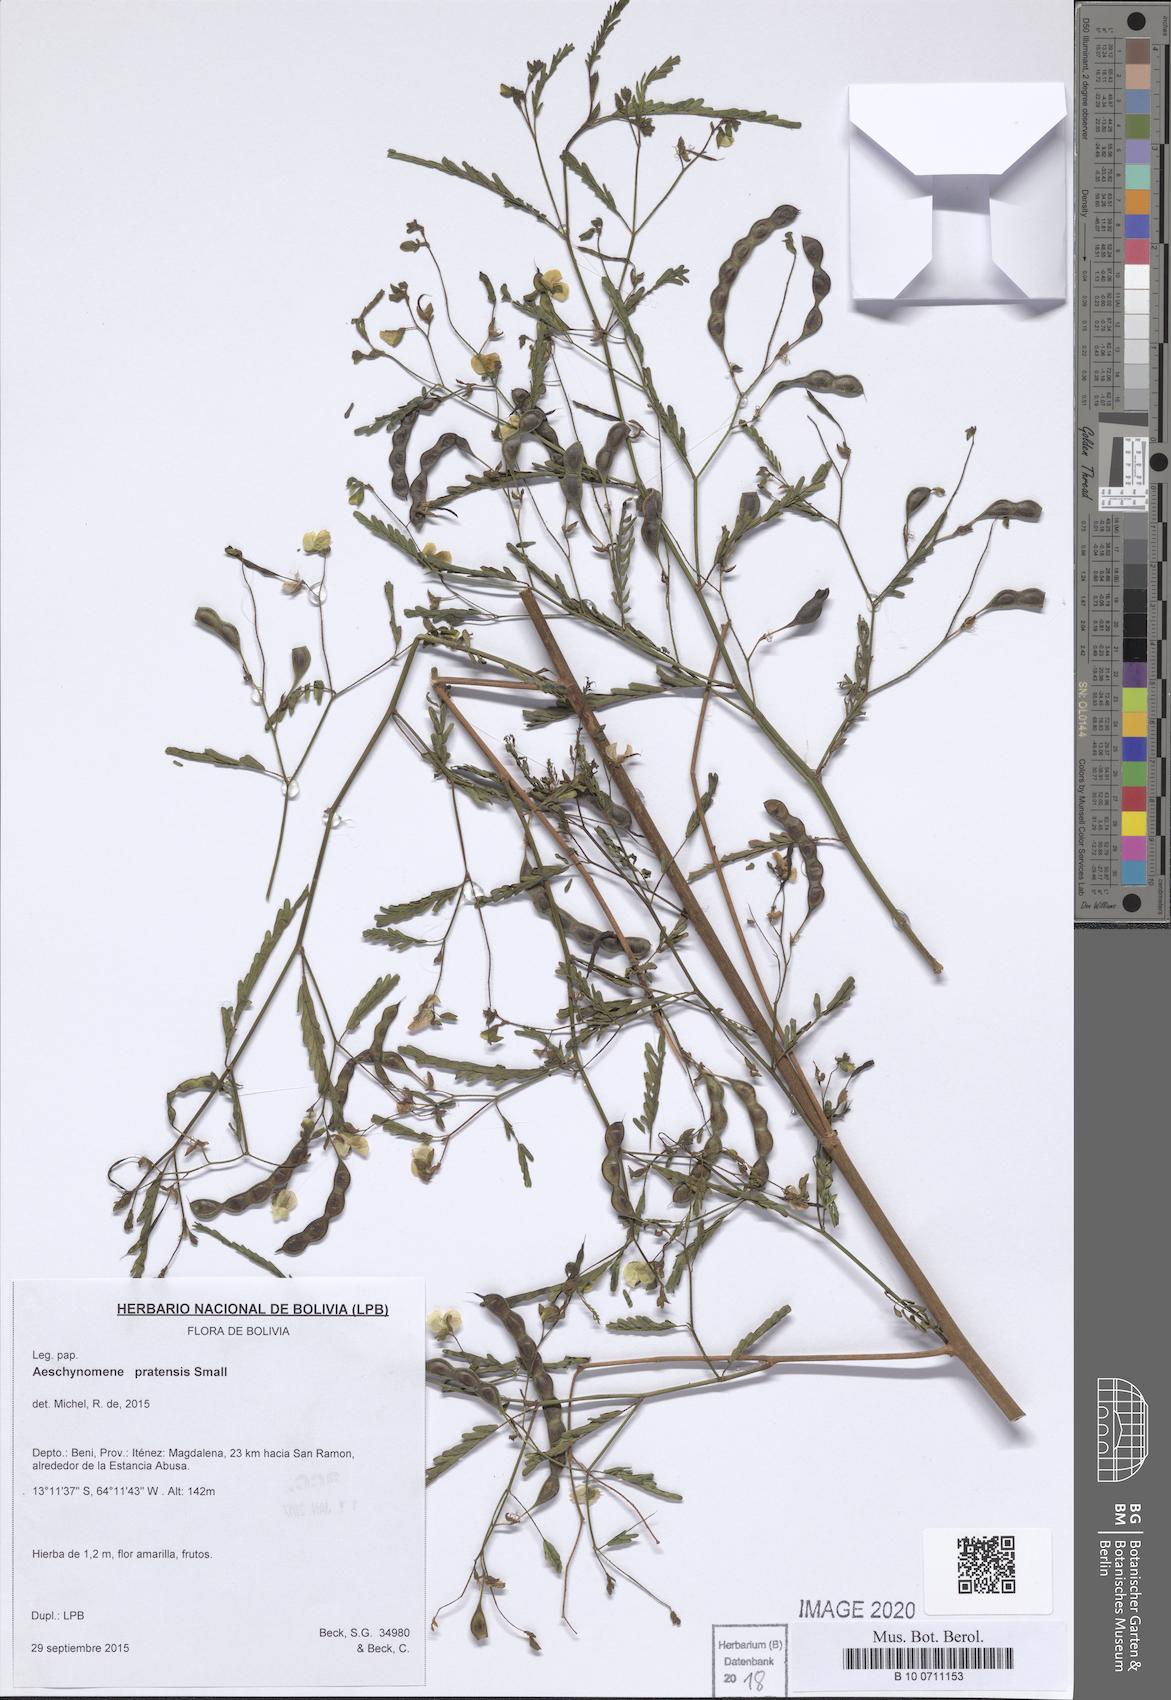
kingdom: Plantae
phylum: Tracheophyta
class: Magnoliopsida
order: Fabales
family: Fabaceae
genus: Aeschynomene
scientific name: Aeschynomene pratensis
